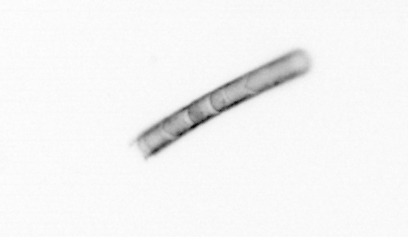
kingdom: Chromista
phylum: Ochrophyta
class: Bacillariophyceae
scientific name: Bacillariophyceae
